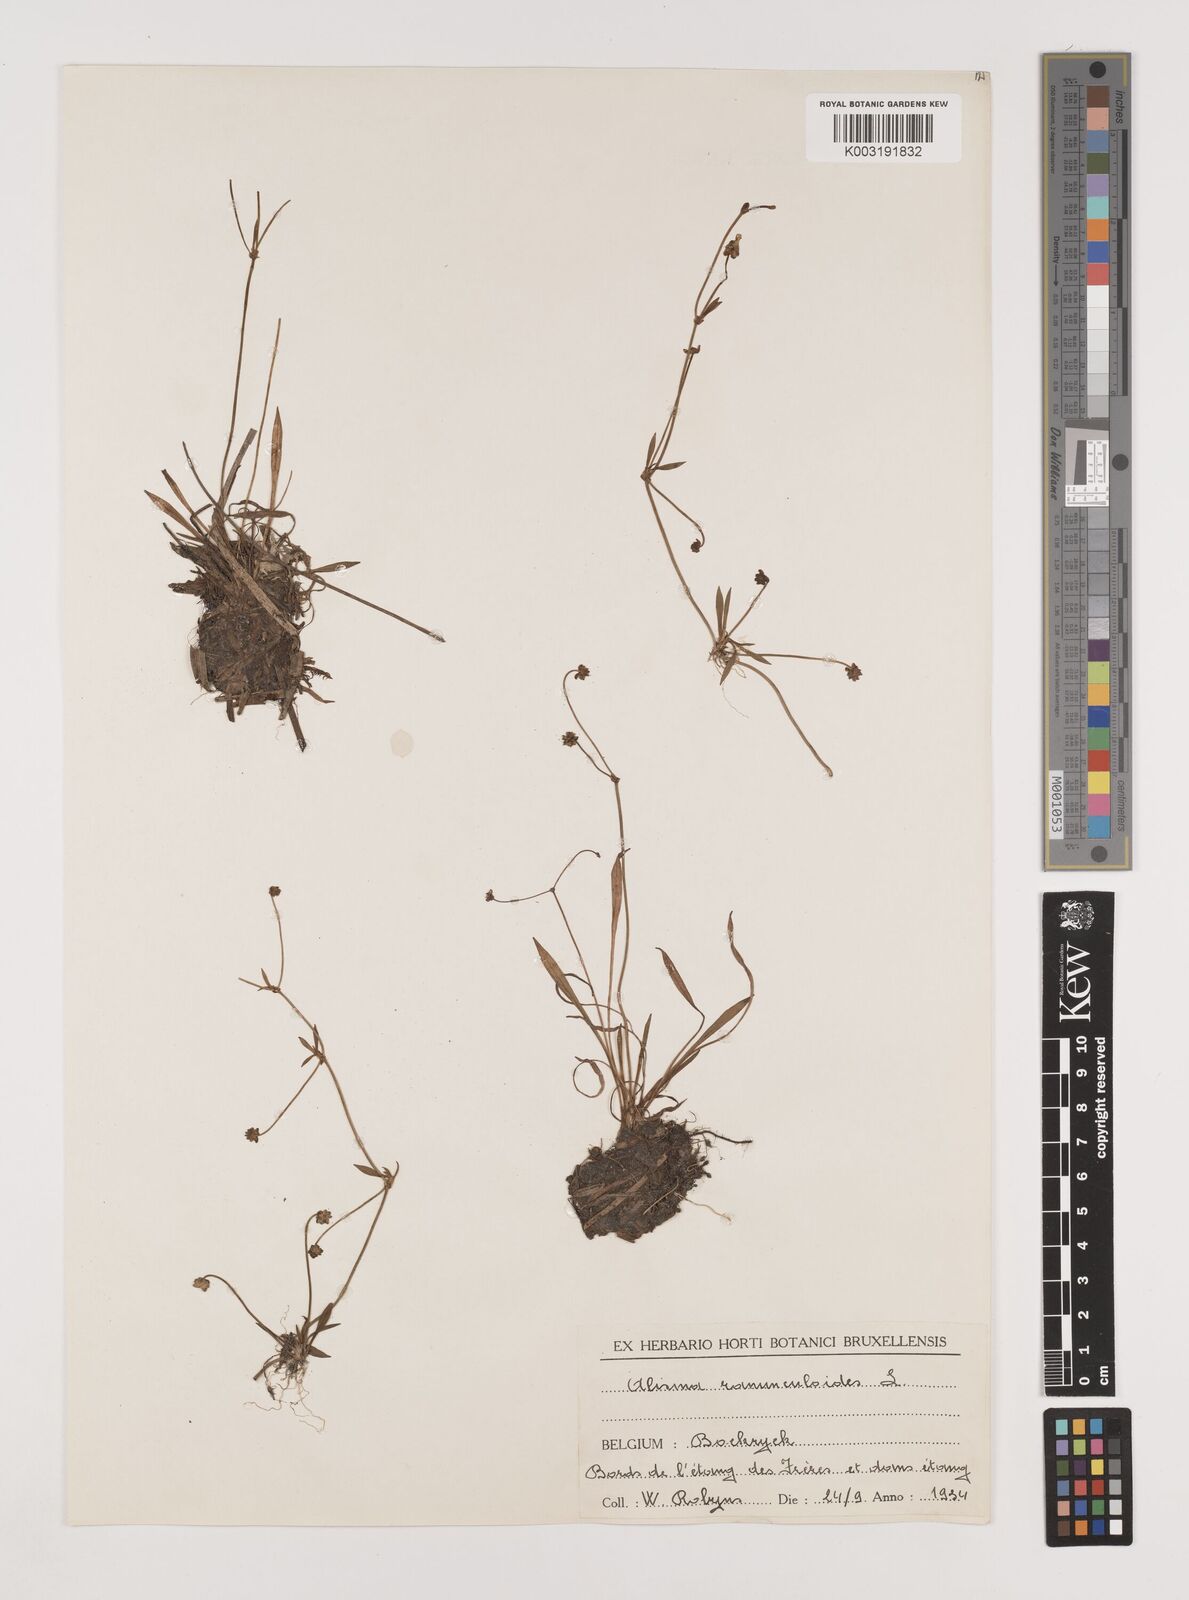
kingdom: Plantae
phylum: Tracheophyta
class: Liliopsida
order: Alismatales
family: Alismataceae
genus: Baldellia
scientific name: Baldellia ranunculoides
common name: Lesser water-plantain
